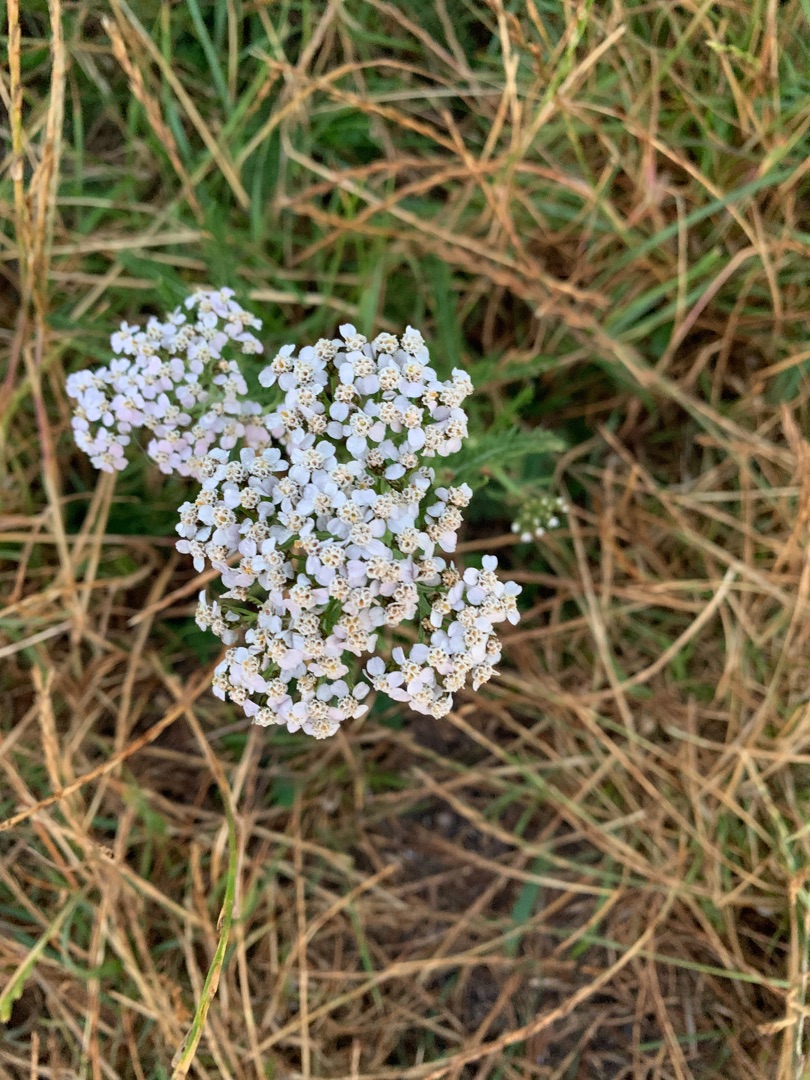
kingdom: Plantae
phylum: Tracheophyta
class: Magnoliopsida
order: Asterales
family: Asteraceae
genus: Achillea
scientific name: Achillea millefolium
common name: Almindelig røllike
